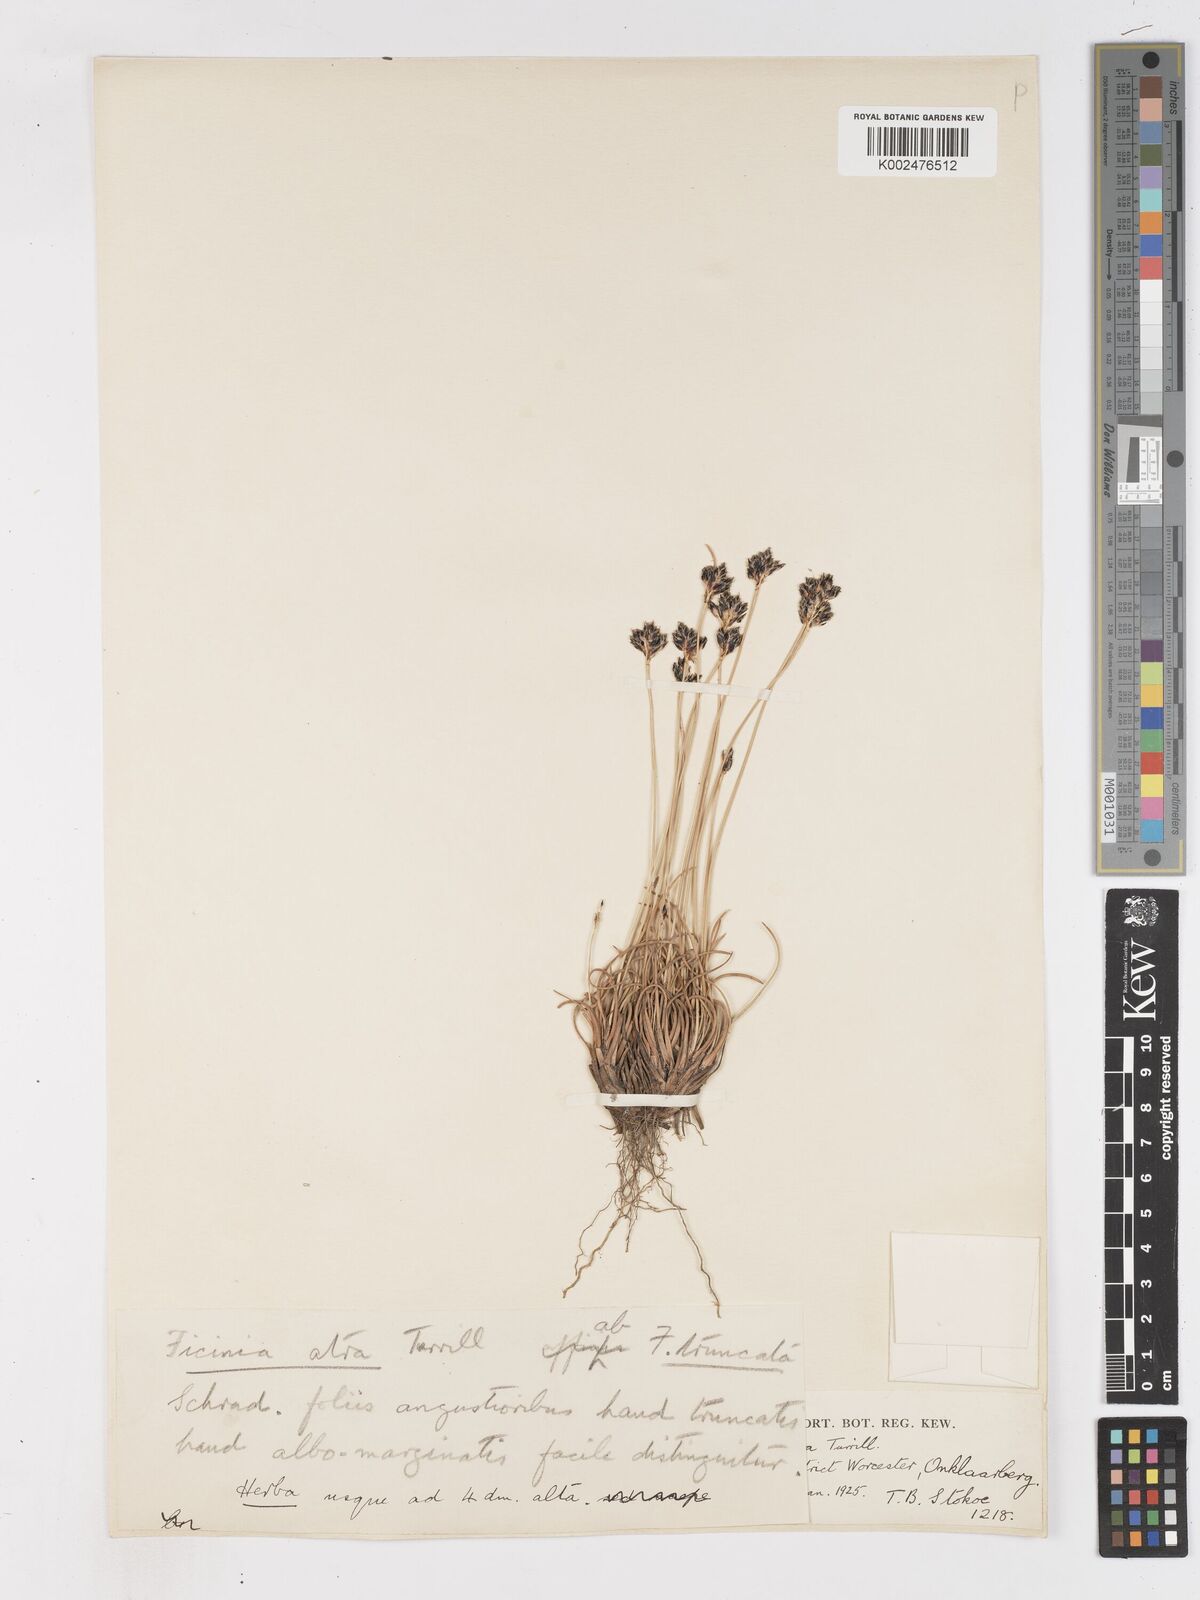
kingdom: Plantae
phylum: Tracheophyta
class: Liliopsida
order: Poales
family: Cyperaceae
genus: Ficinia
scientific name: Ficinia
